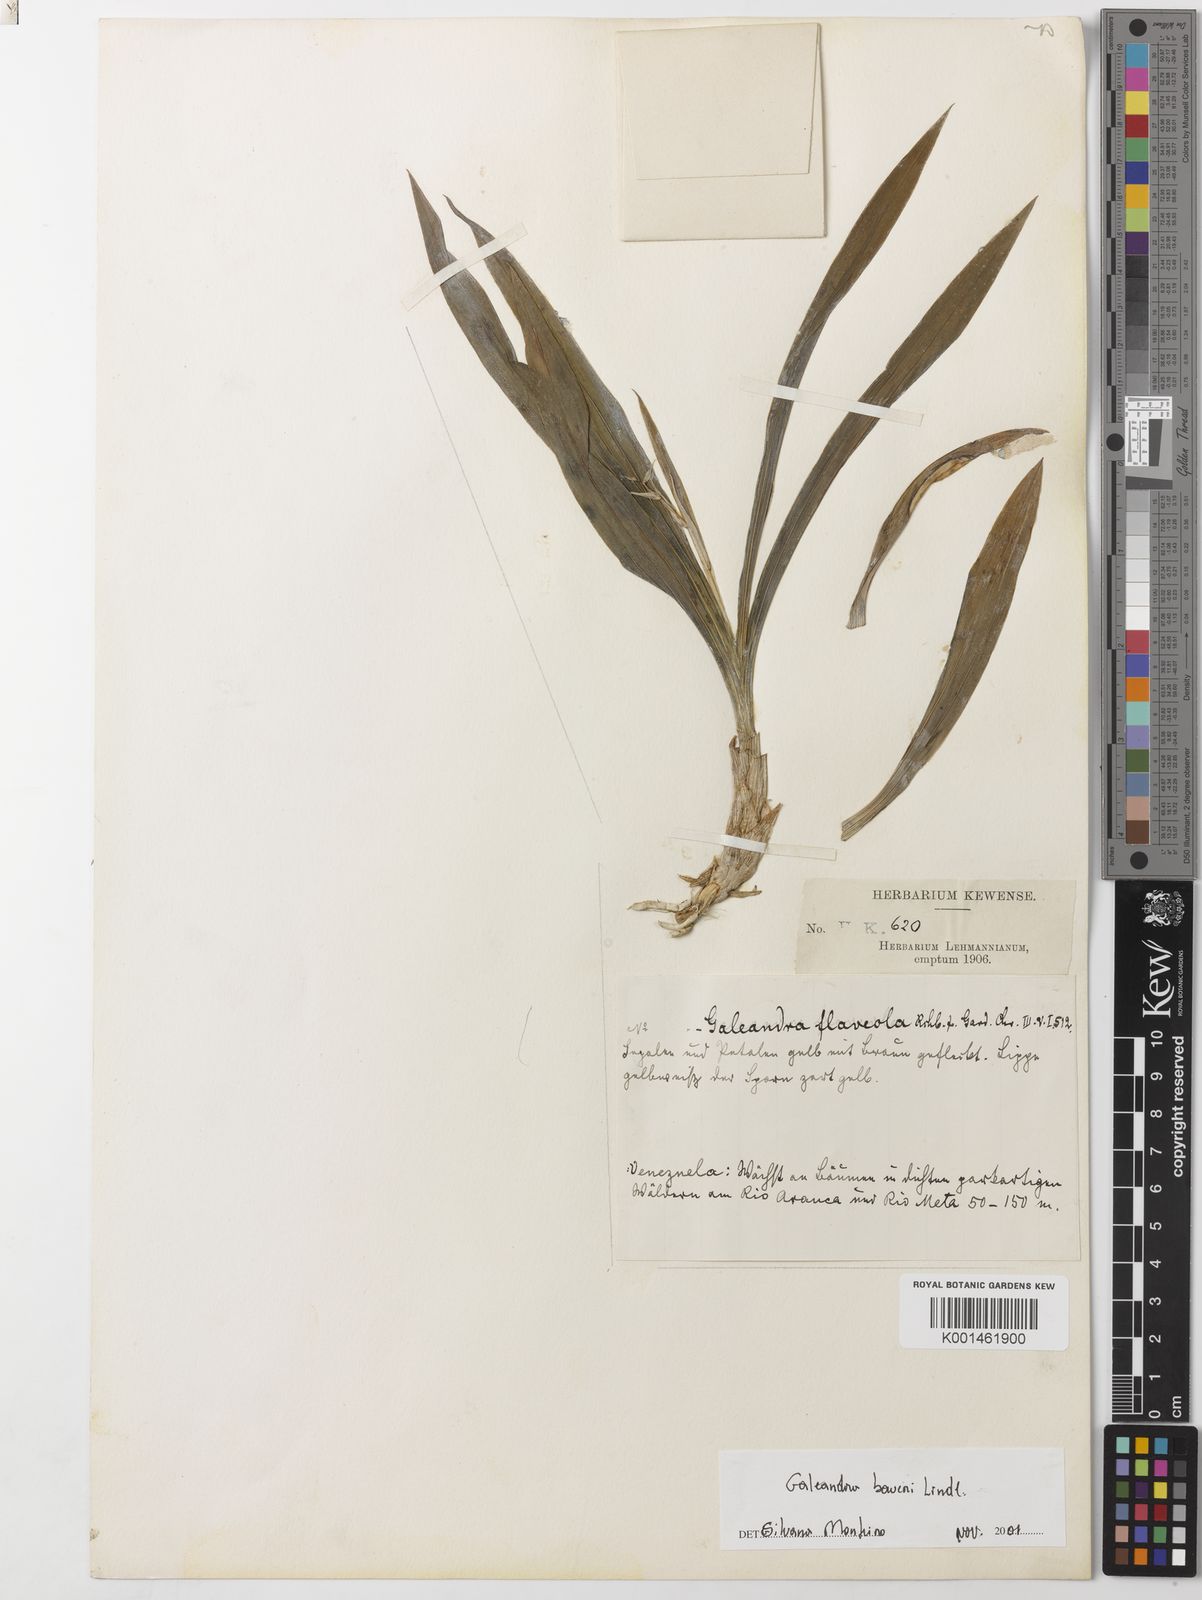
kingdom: Plantae
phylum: Tracheophyta
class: Liliopsida
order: Asparagales
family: Orchidaceae
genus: Galeandra
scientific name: Galeandra baueri
